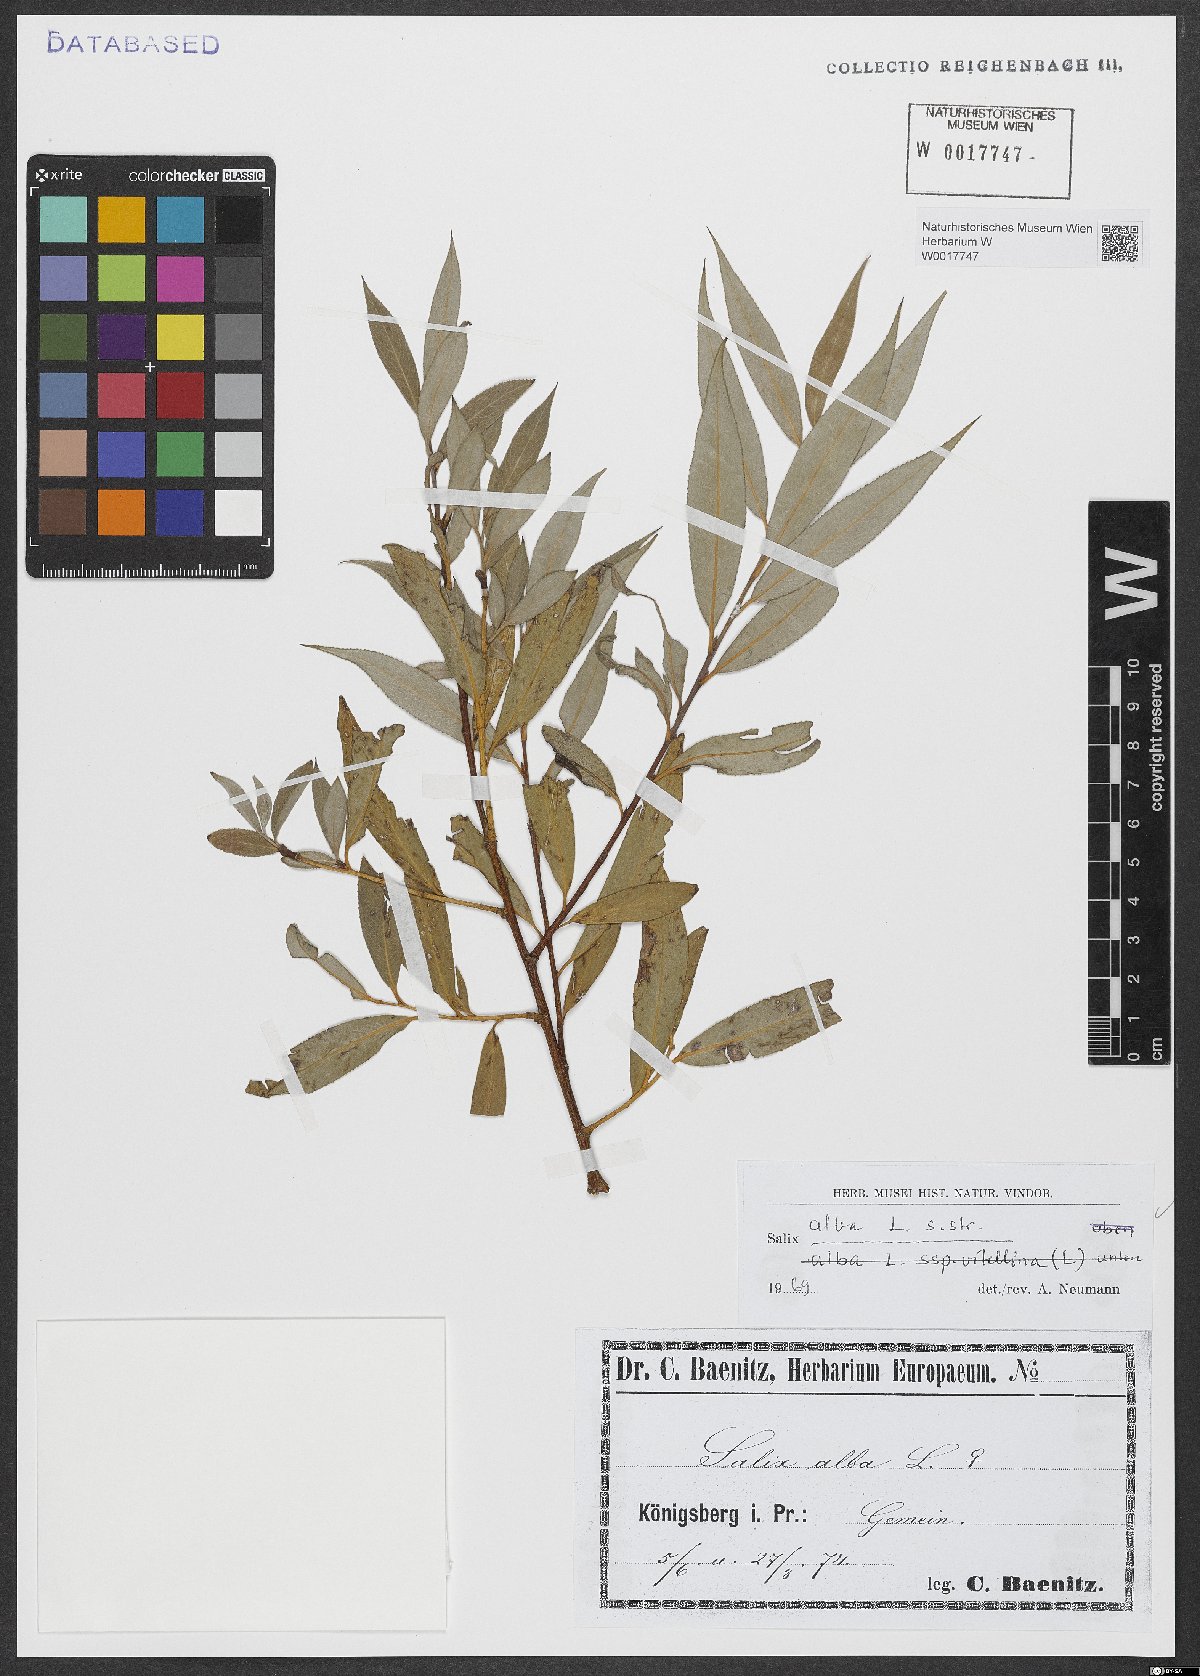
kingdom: Plantae
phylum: Tracheophyta
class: Magnoliopsida
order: Malpighiales
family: Salicaceae
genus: Salix
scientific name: Salix alba
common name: White willow
